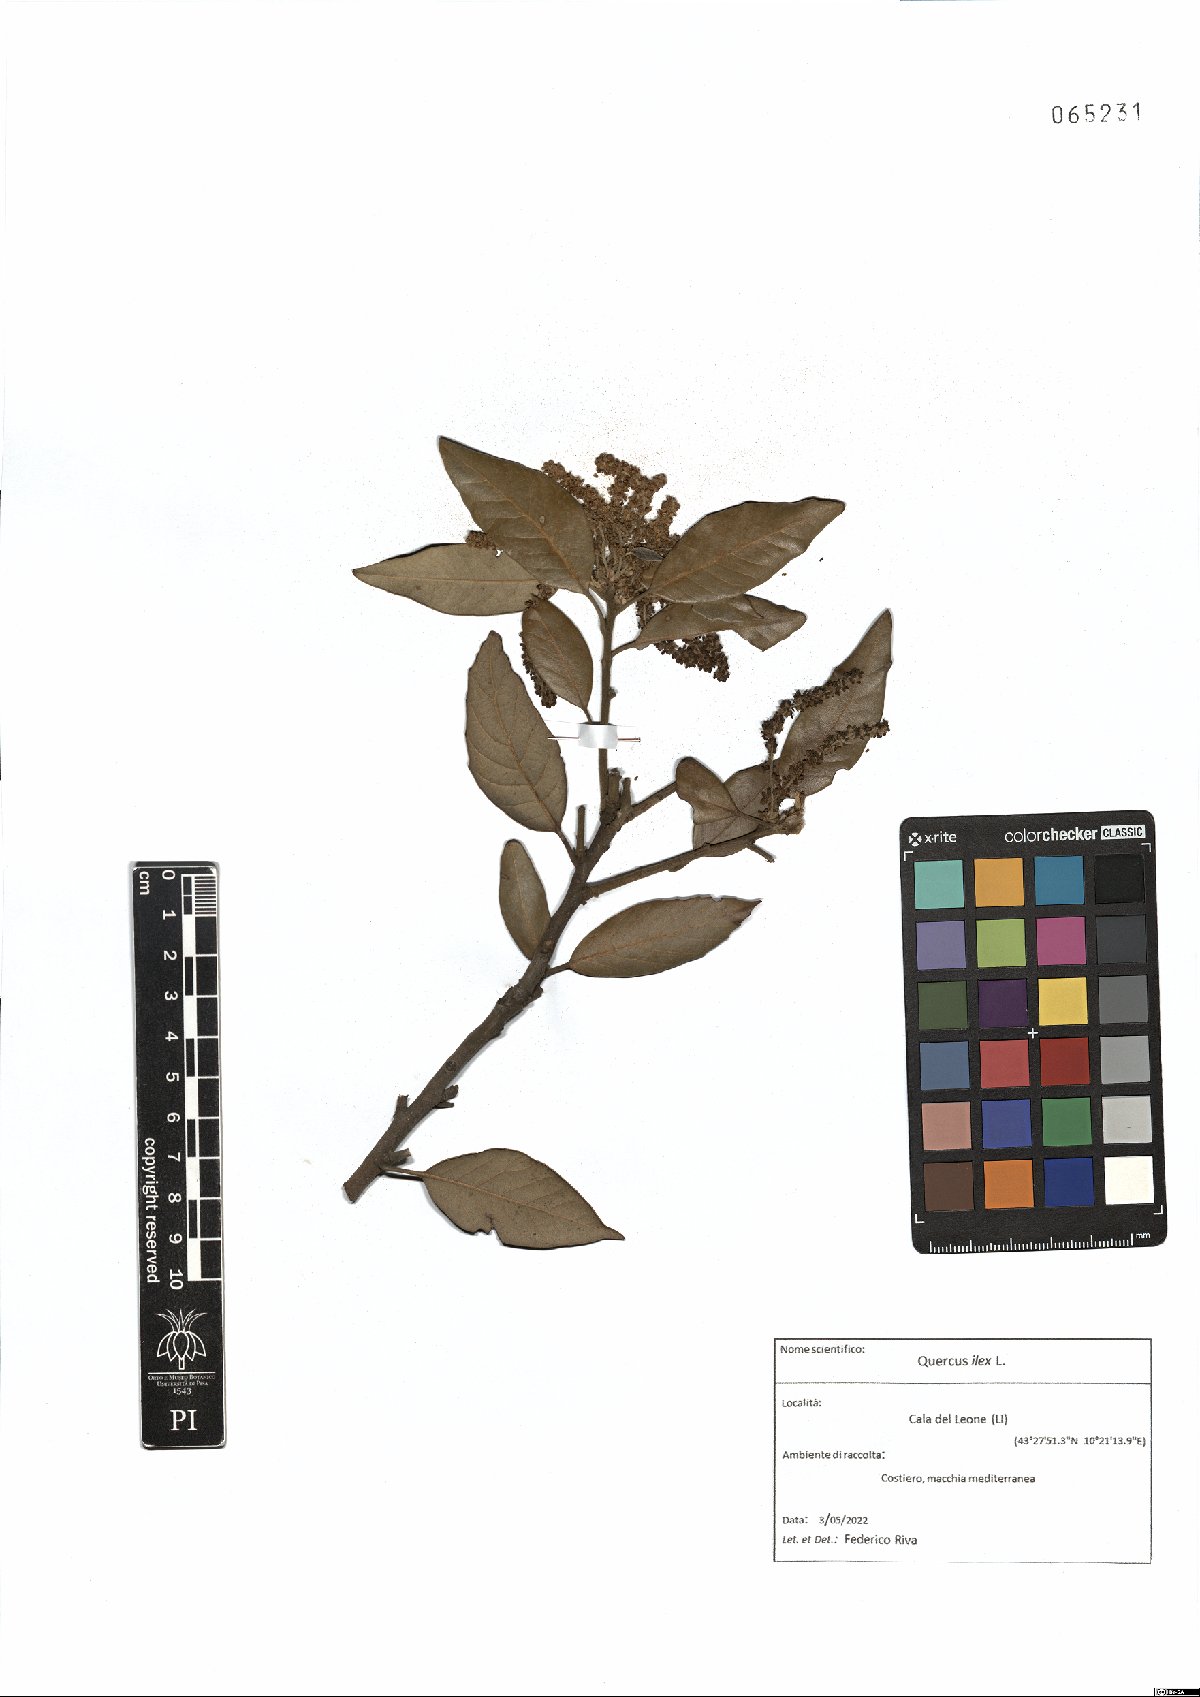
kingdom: Plantae
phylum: Tracheophyta
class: Magnoliopsida
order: Fagales
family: Fagaceae
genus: Quercus
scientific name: Quercus ilex
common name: Evergreen oak
